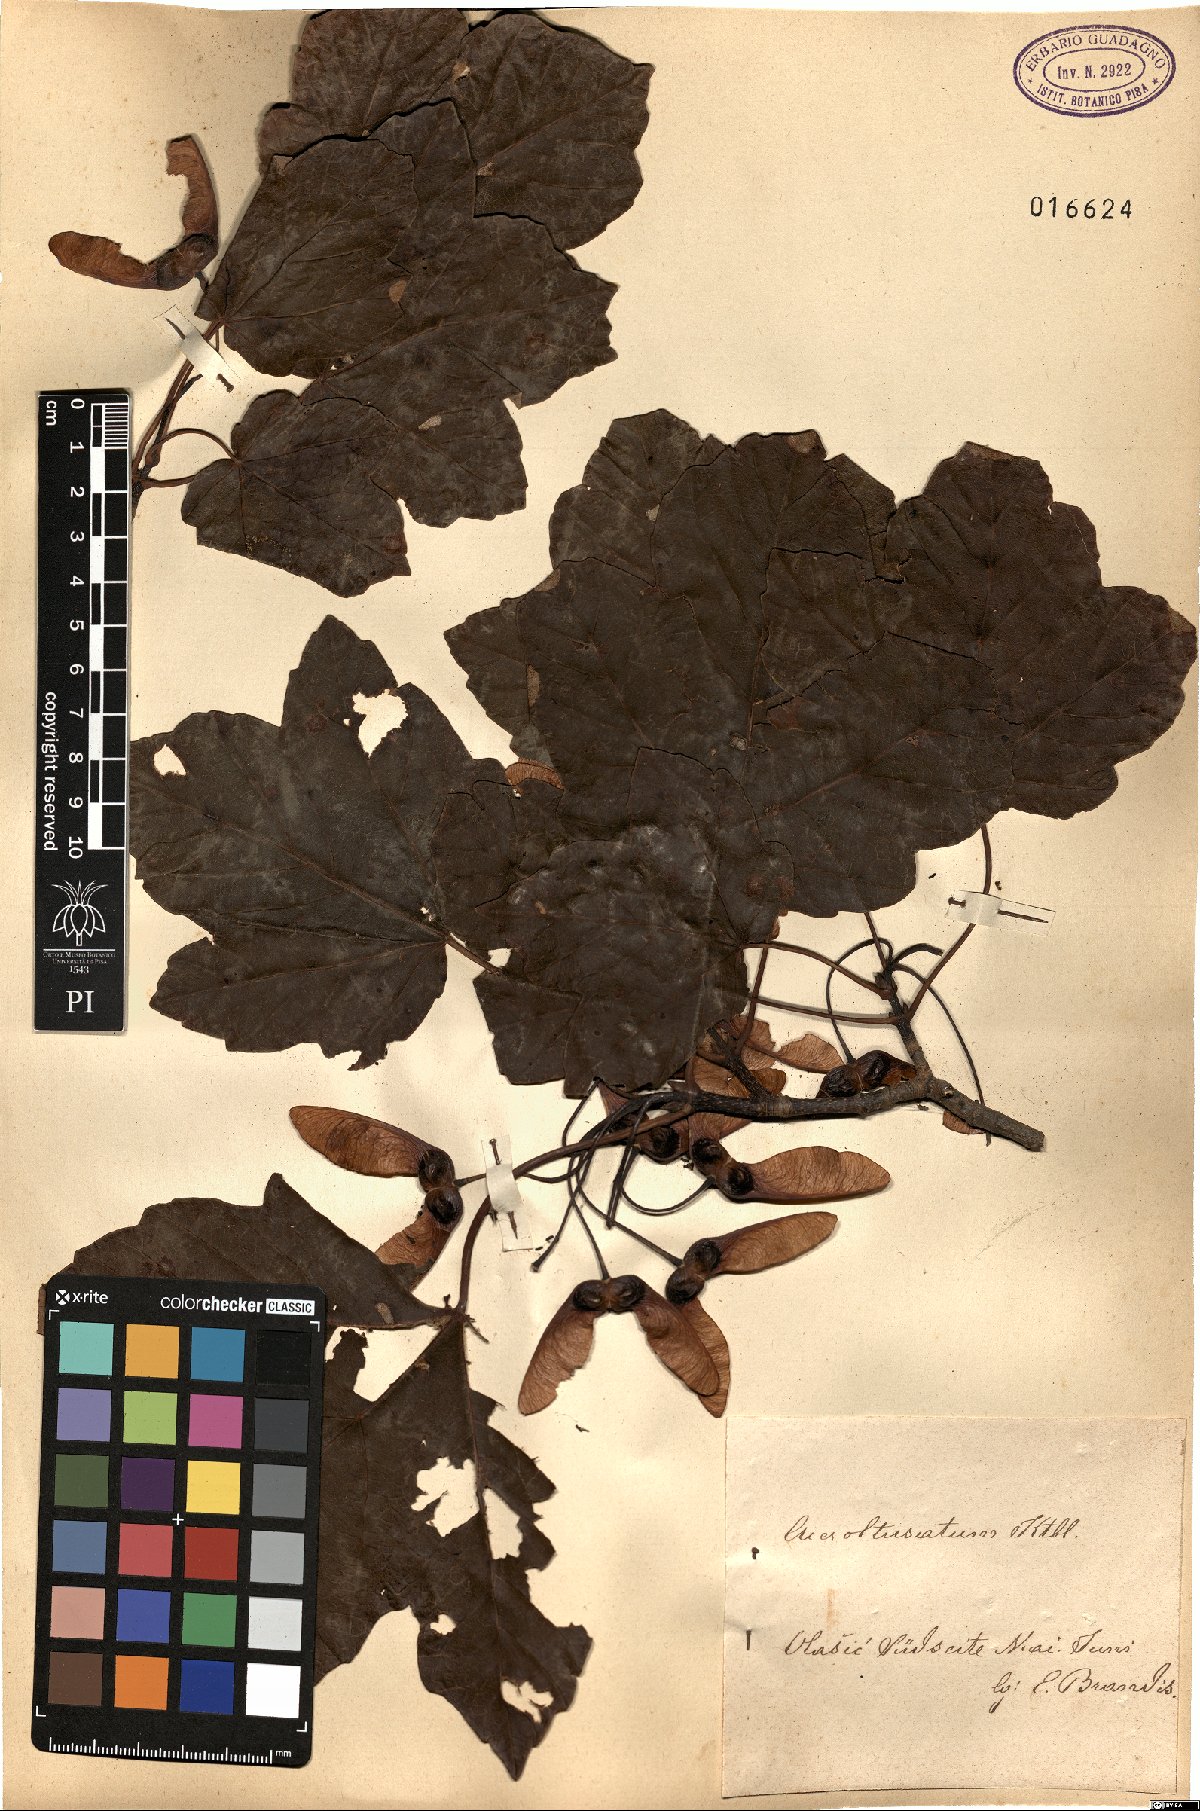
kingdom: Plantae
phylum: Tracheophyta
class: Magnoliopsida
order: Sapindales
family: Sapindaceae
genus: Acer
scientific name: Acer obtusatum
